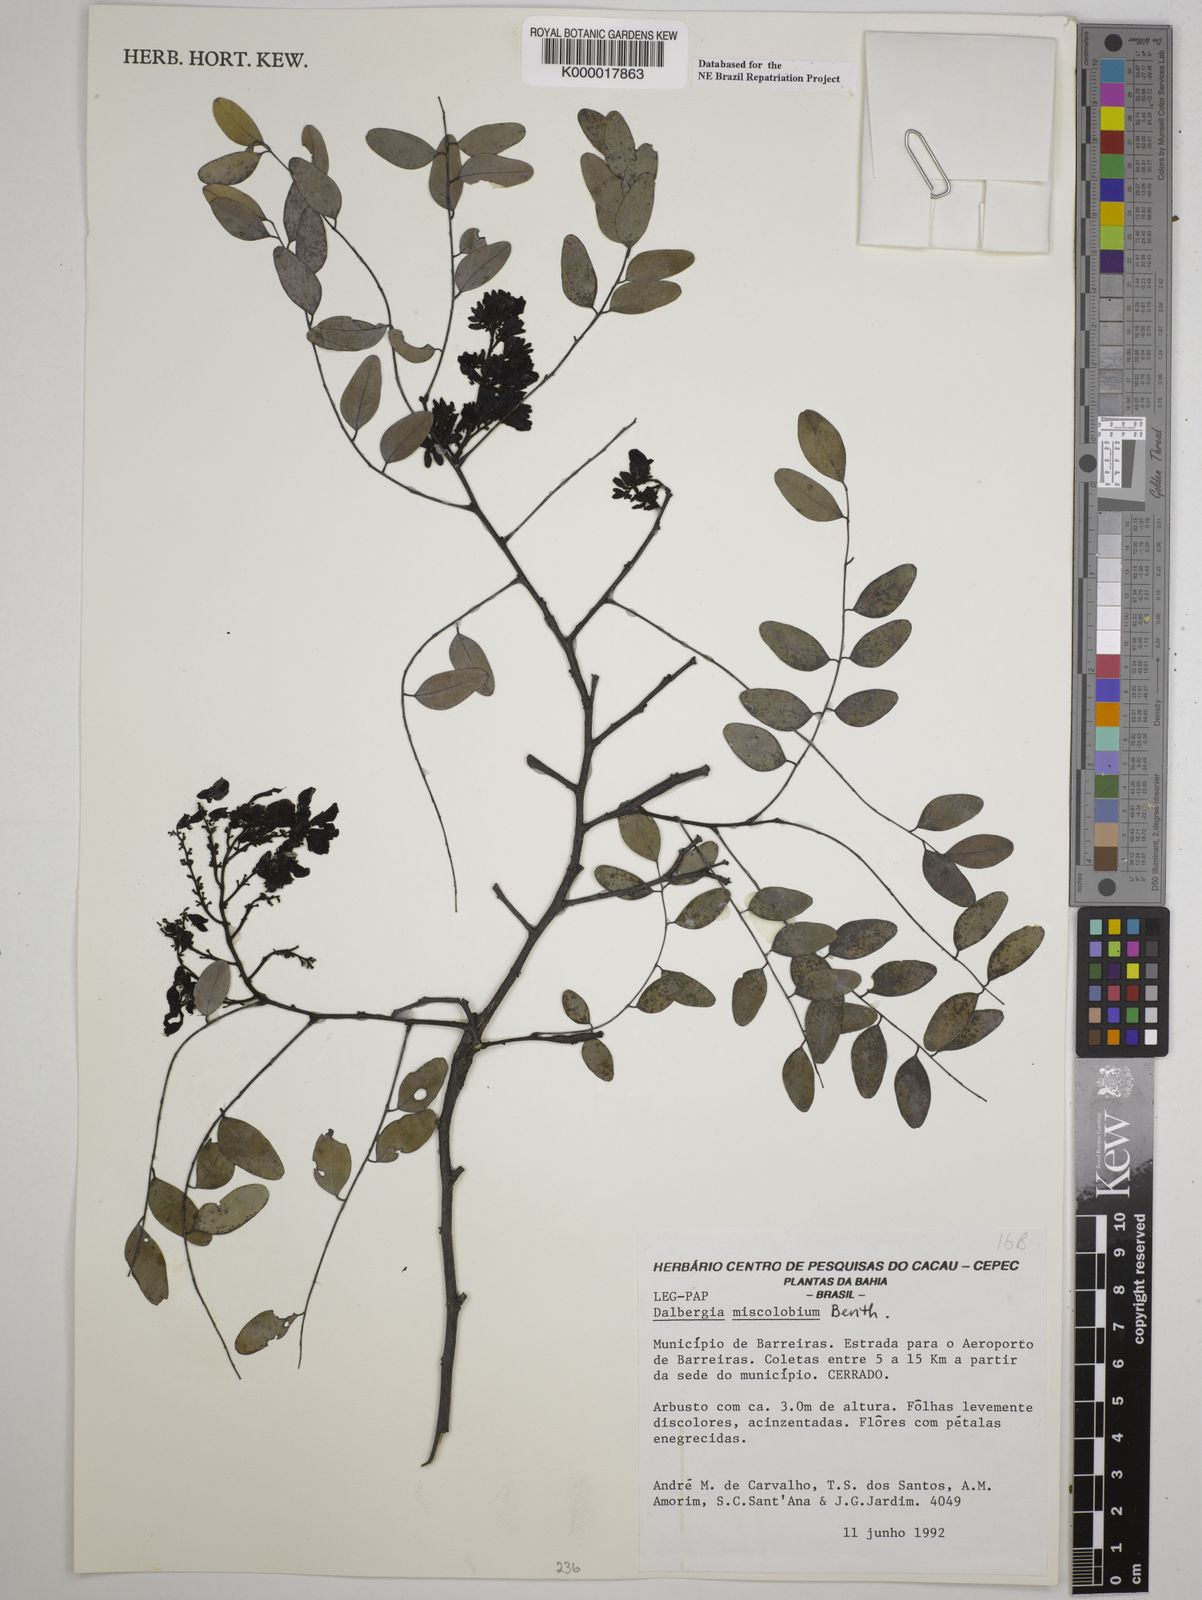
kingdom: Plantae
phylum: Tracheophyta
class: Magnoliopsida
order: Fabales
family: Fabaceae
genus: Dalbergia
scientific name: Dalbergia miscolobium
